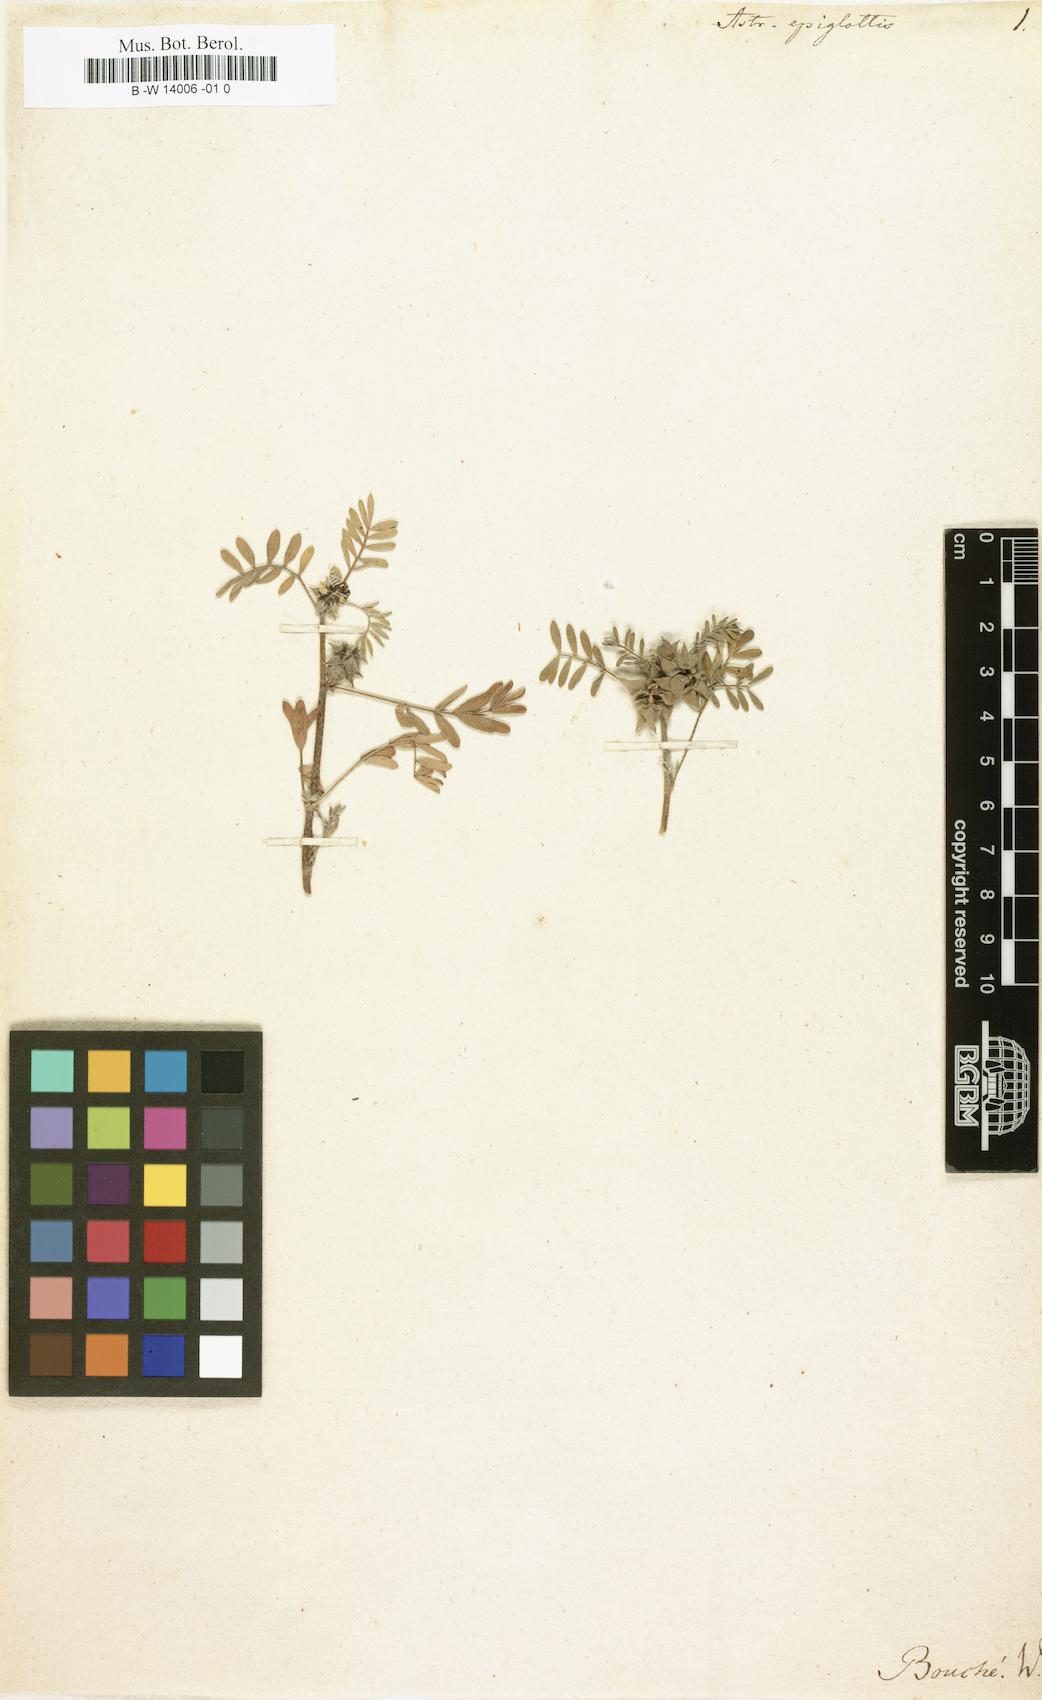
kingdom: Plantae
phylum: Tracheophyta
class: Magnoliopsida
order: Fabales
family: Fabaceae
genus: Biserrula
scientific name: Biserrula epiglottis
